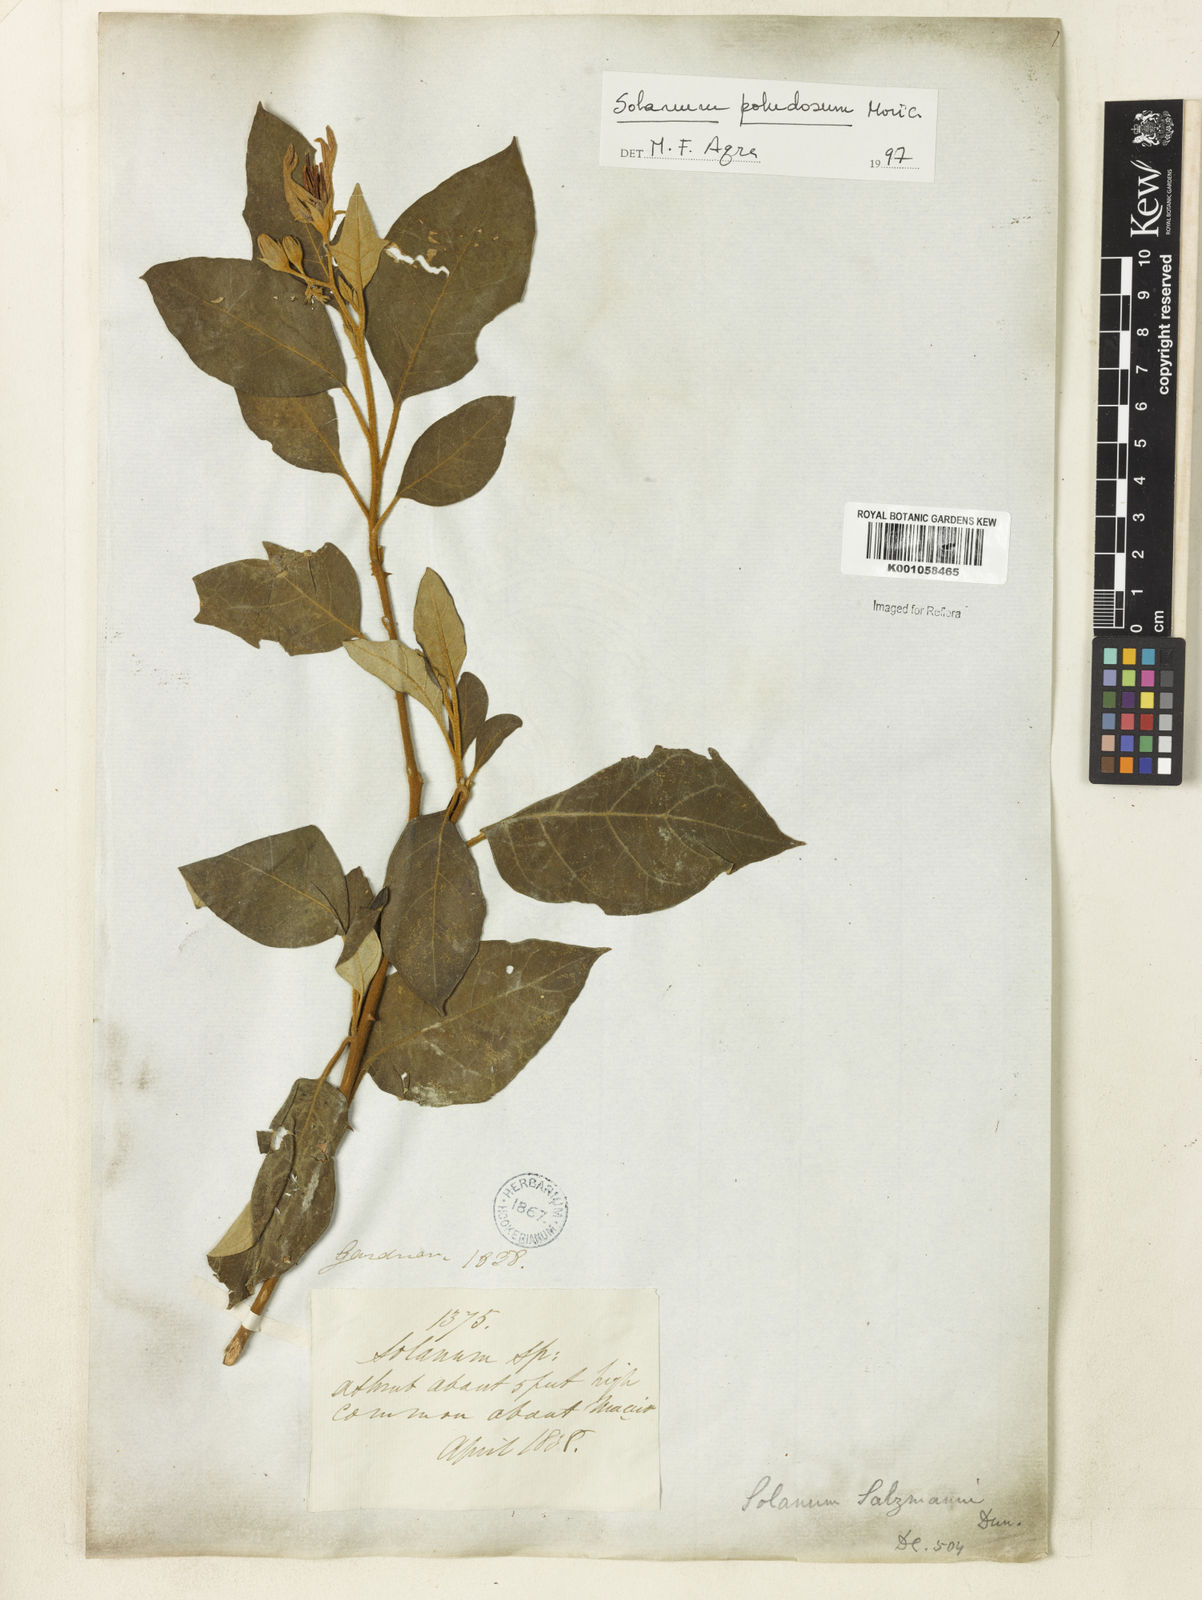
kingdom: Plantae
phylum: Tracheophyta
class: Magnoliopsida
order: Solanales
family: Solanaceae
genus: Solanum
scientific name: Solanum paludosum
